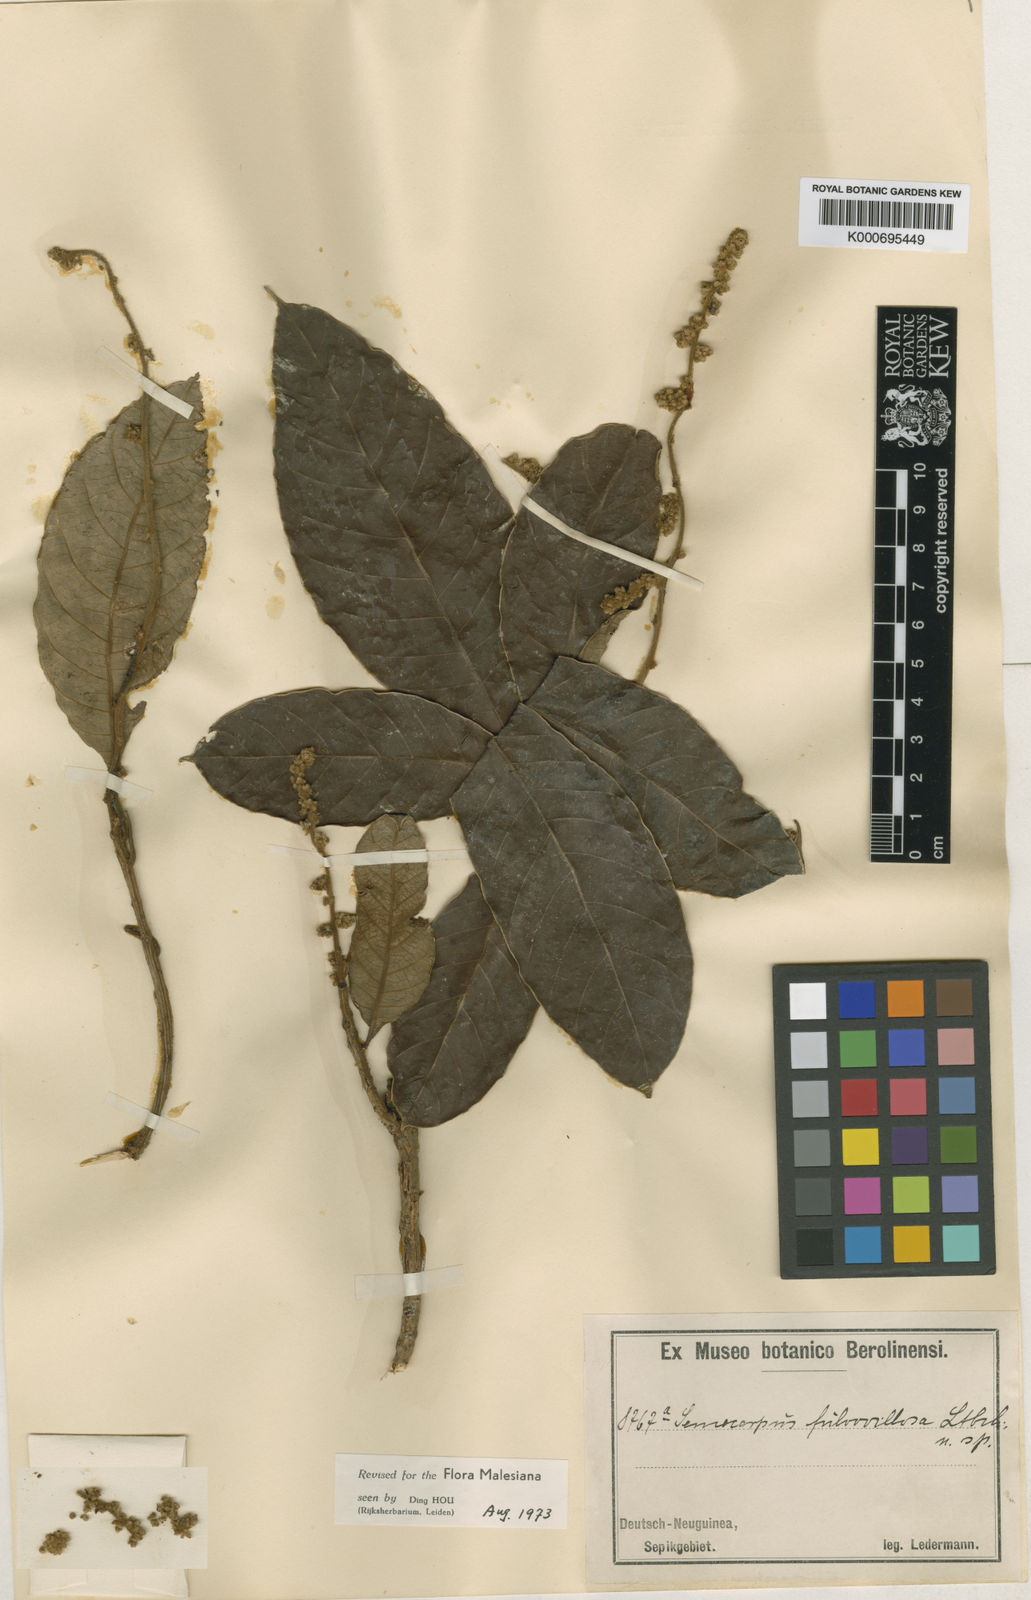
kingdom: Plantae
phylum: Tracheophyta
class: Magnoliopsida
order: Sapindales
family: Anacardiaceae
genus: Semecarpus
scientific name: Semecarpus aruensis
